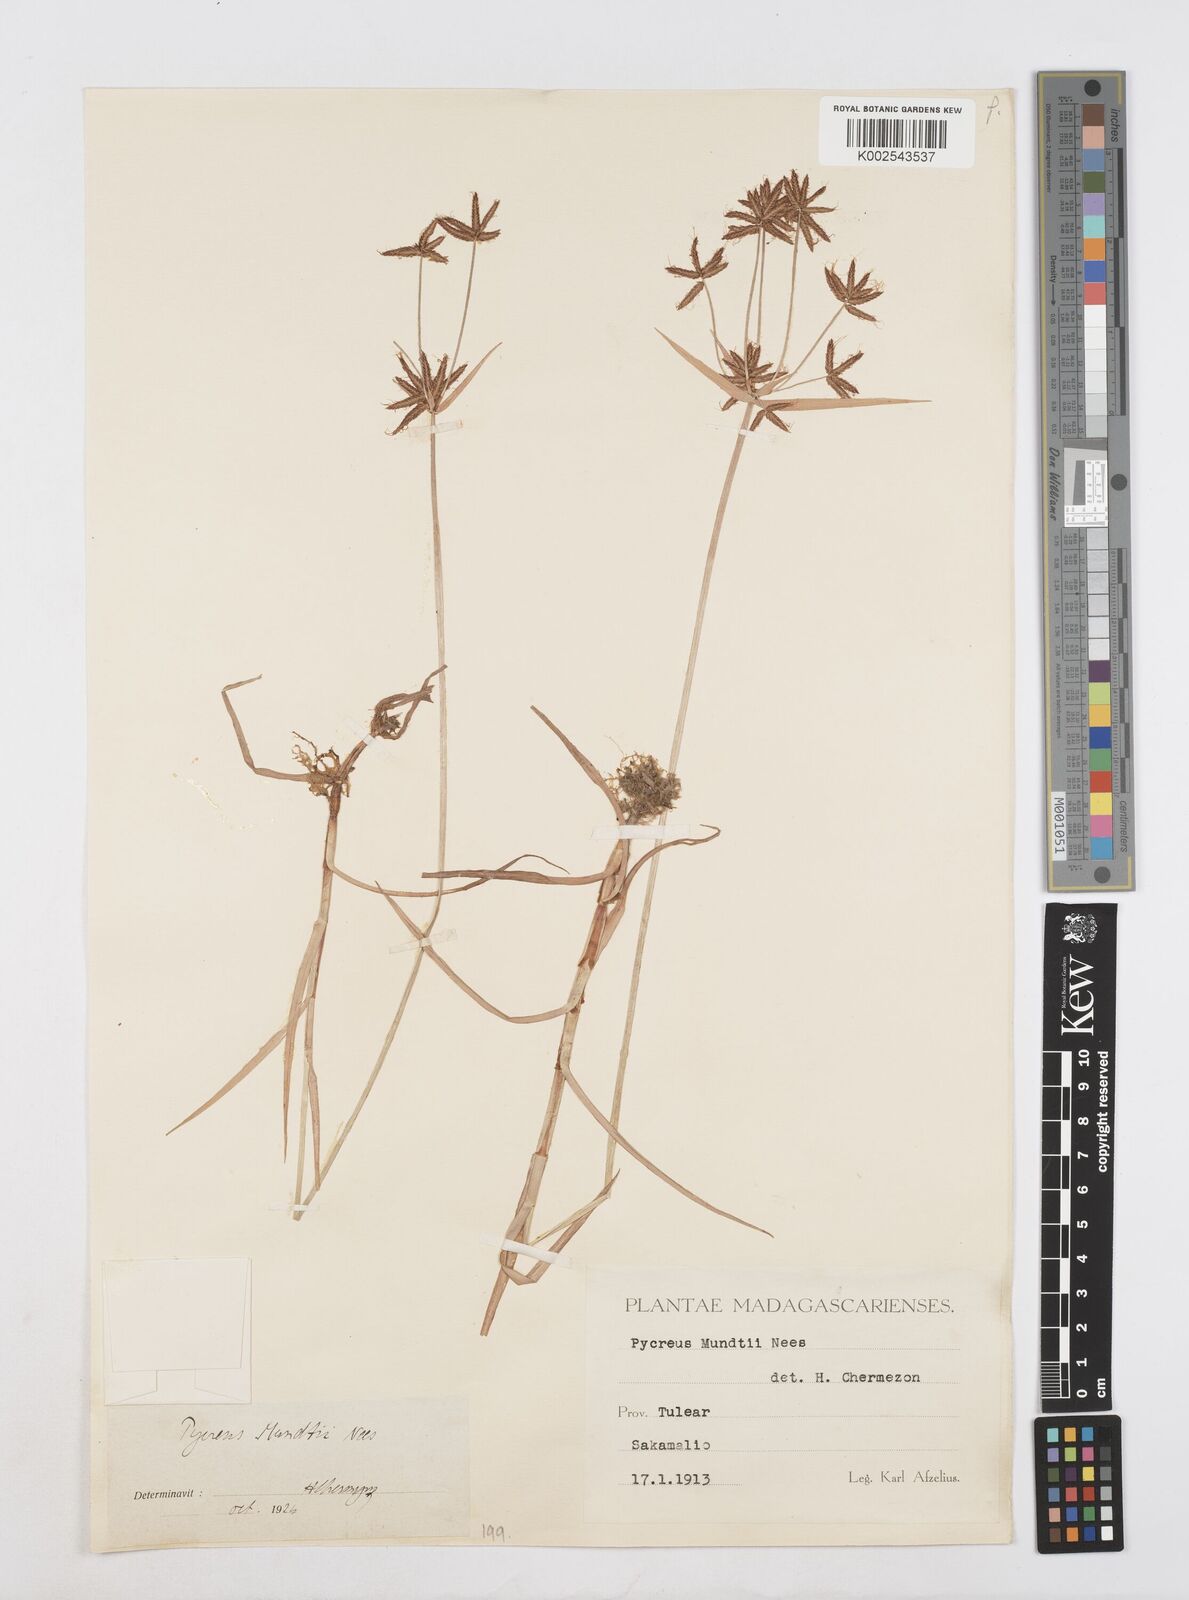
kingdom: Plantae
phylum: Tracheophyta
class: Liliopsida
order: Poales
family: Cyperaceae
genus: Cyperus
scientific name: Cyperus mundii
